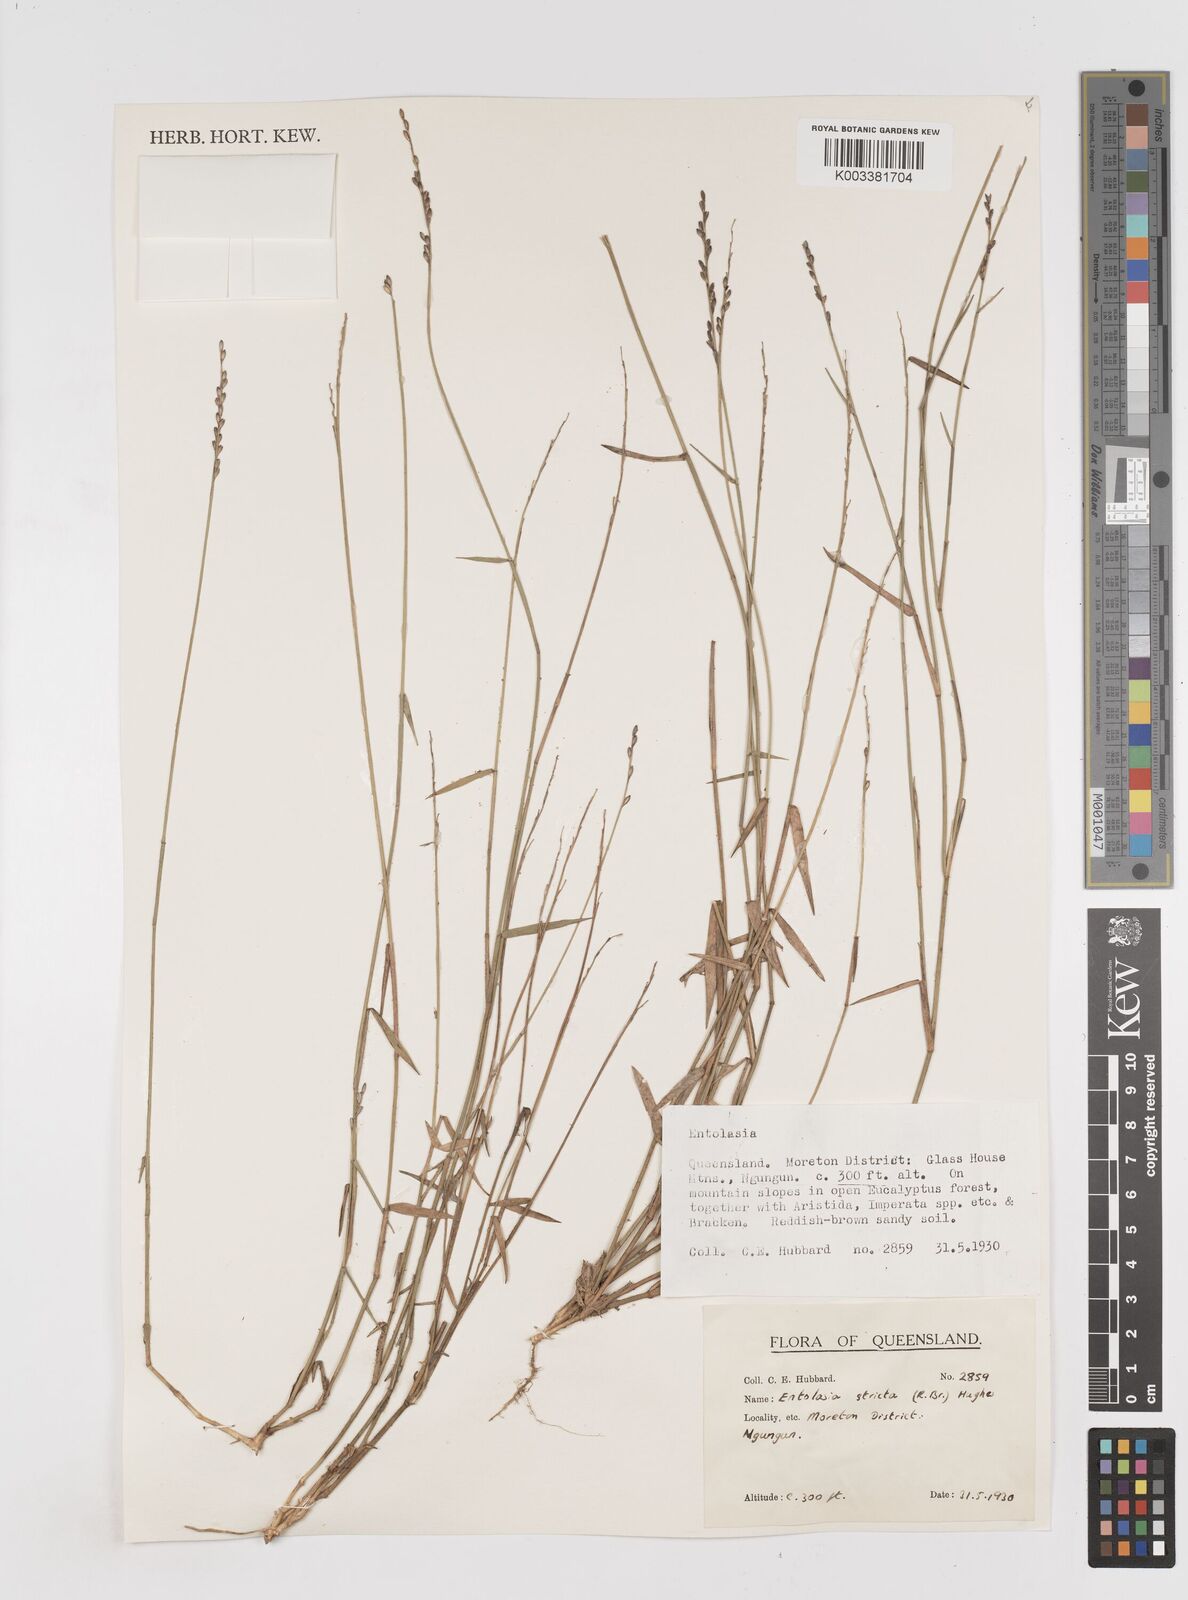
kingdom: Plantae
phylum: Tracheophyta
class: Liliopsida
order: Poales
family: Poaceae
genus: Entolasia
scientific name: Entolasia stricta
